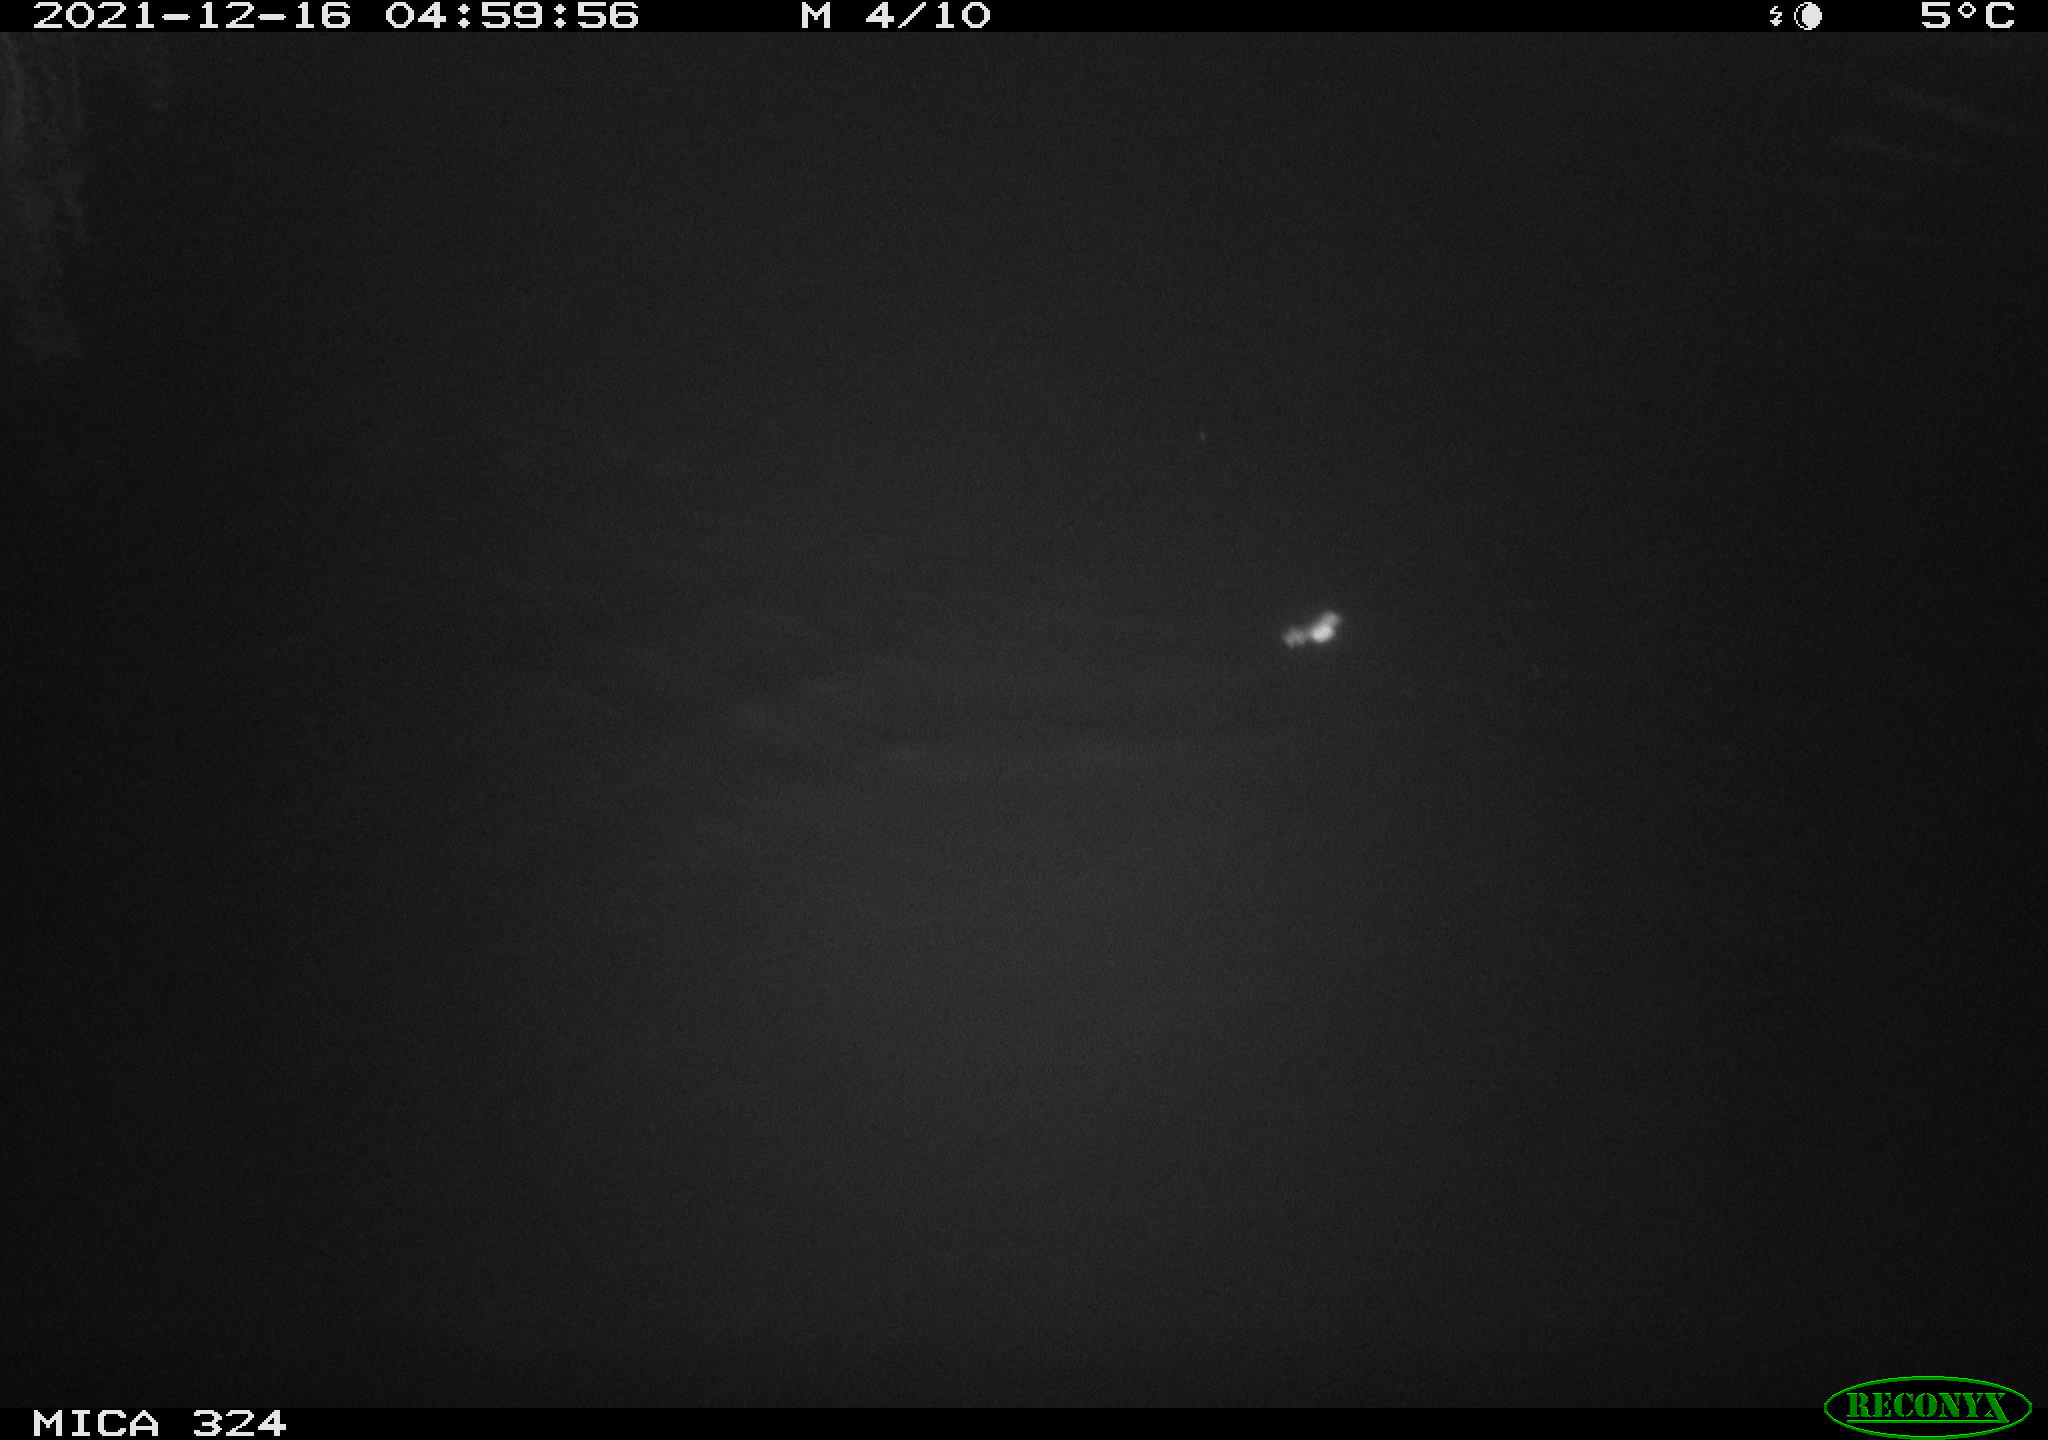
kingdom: Animalia
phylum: Chordata
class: Mammalia
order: Rodentia
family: Cricetidae
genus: Ondatra
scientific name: Ondatra zibethicus
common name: Muskrat
